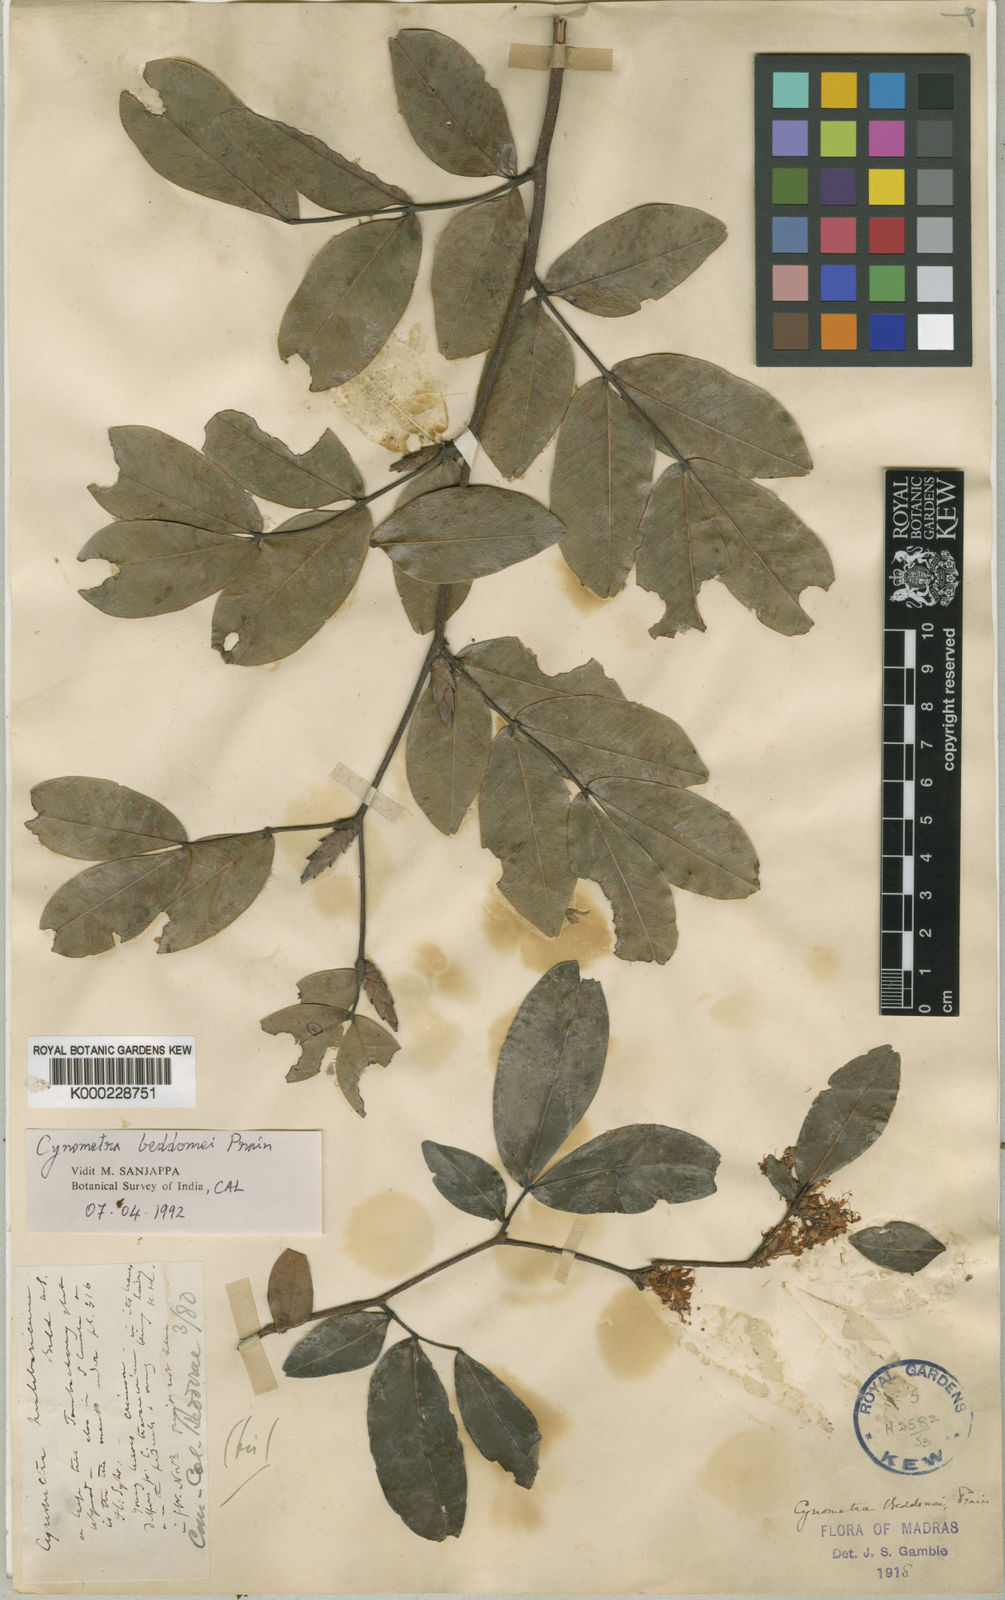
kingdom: Plantae
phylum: Tracheophyta
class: Magnoliopsida
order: Fabales
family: Fabaceae
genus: Cynometra
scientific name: Cynometra beddomei
